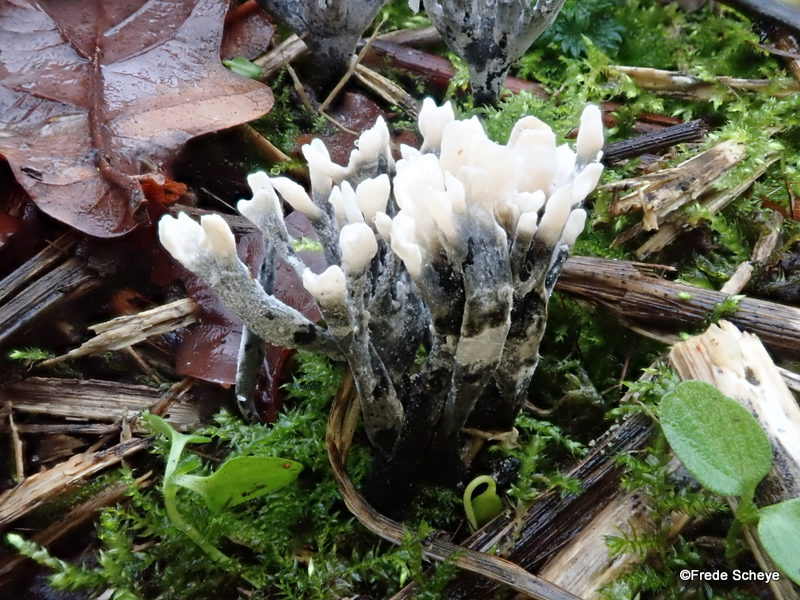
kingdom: Fungi
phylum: Ascomycota
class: Sordariomycetes
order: Xylariales
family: Xylariaceae
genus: Xylaria
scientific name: Xylaria hypoxylon
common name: grenet stødsvamp
